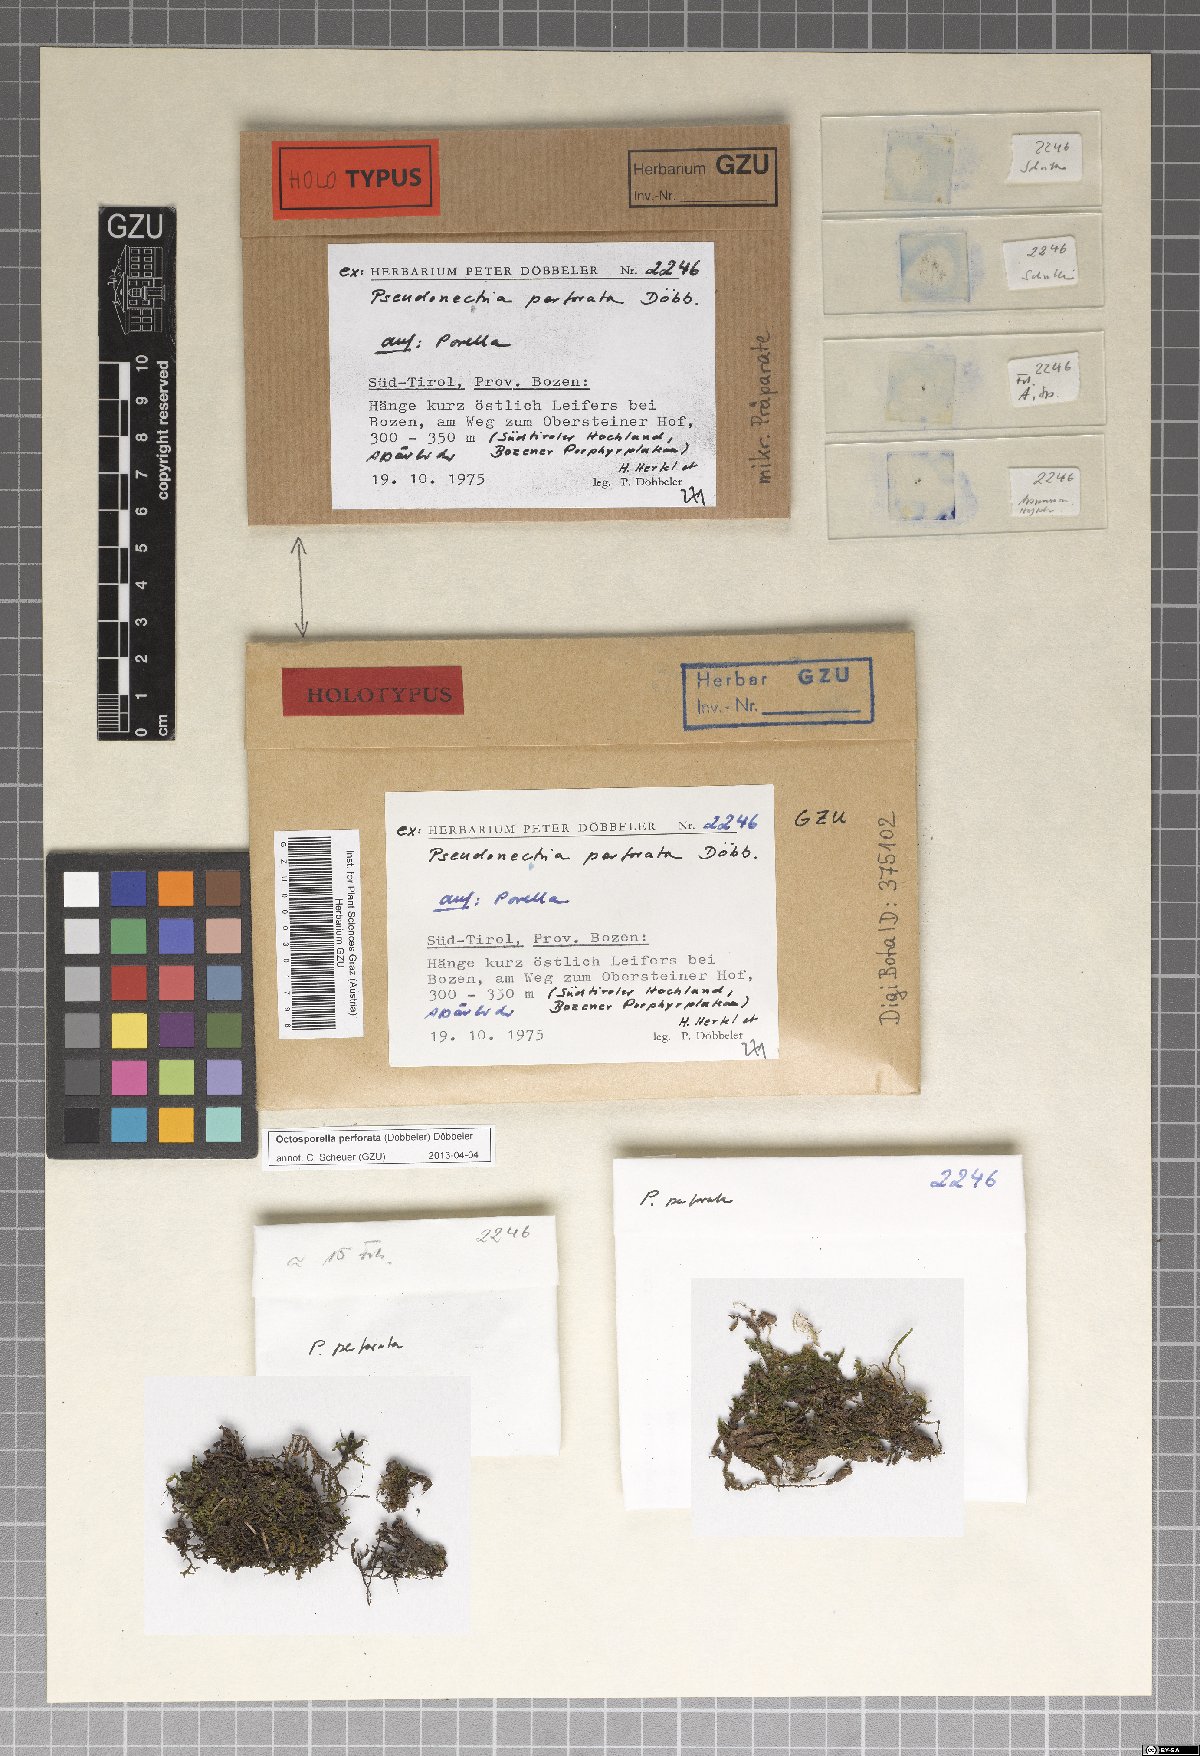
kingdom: Fungi
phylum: Ascomycota
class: Pezizomycetes
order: Pezizales
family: Pyronemataceae
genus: Octosporella
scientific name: Octosporella perforata
